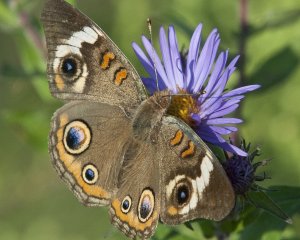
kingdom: Animalia
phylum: Arthropoda
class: Insecta
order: Lepidoptera
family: Nymphalidae
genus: Junonia
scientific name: Junonia coenia
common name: Common Buckeye
